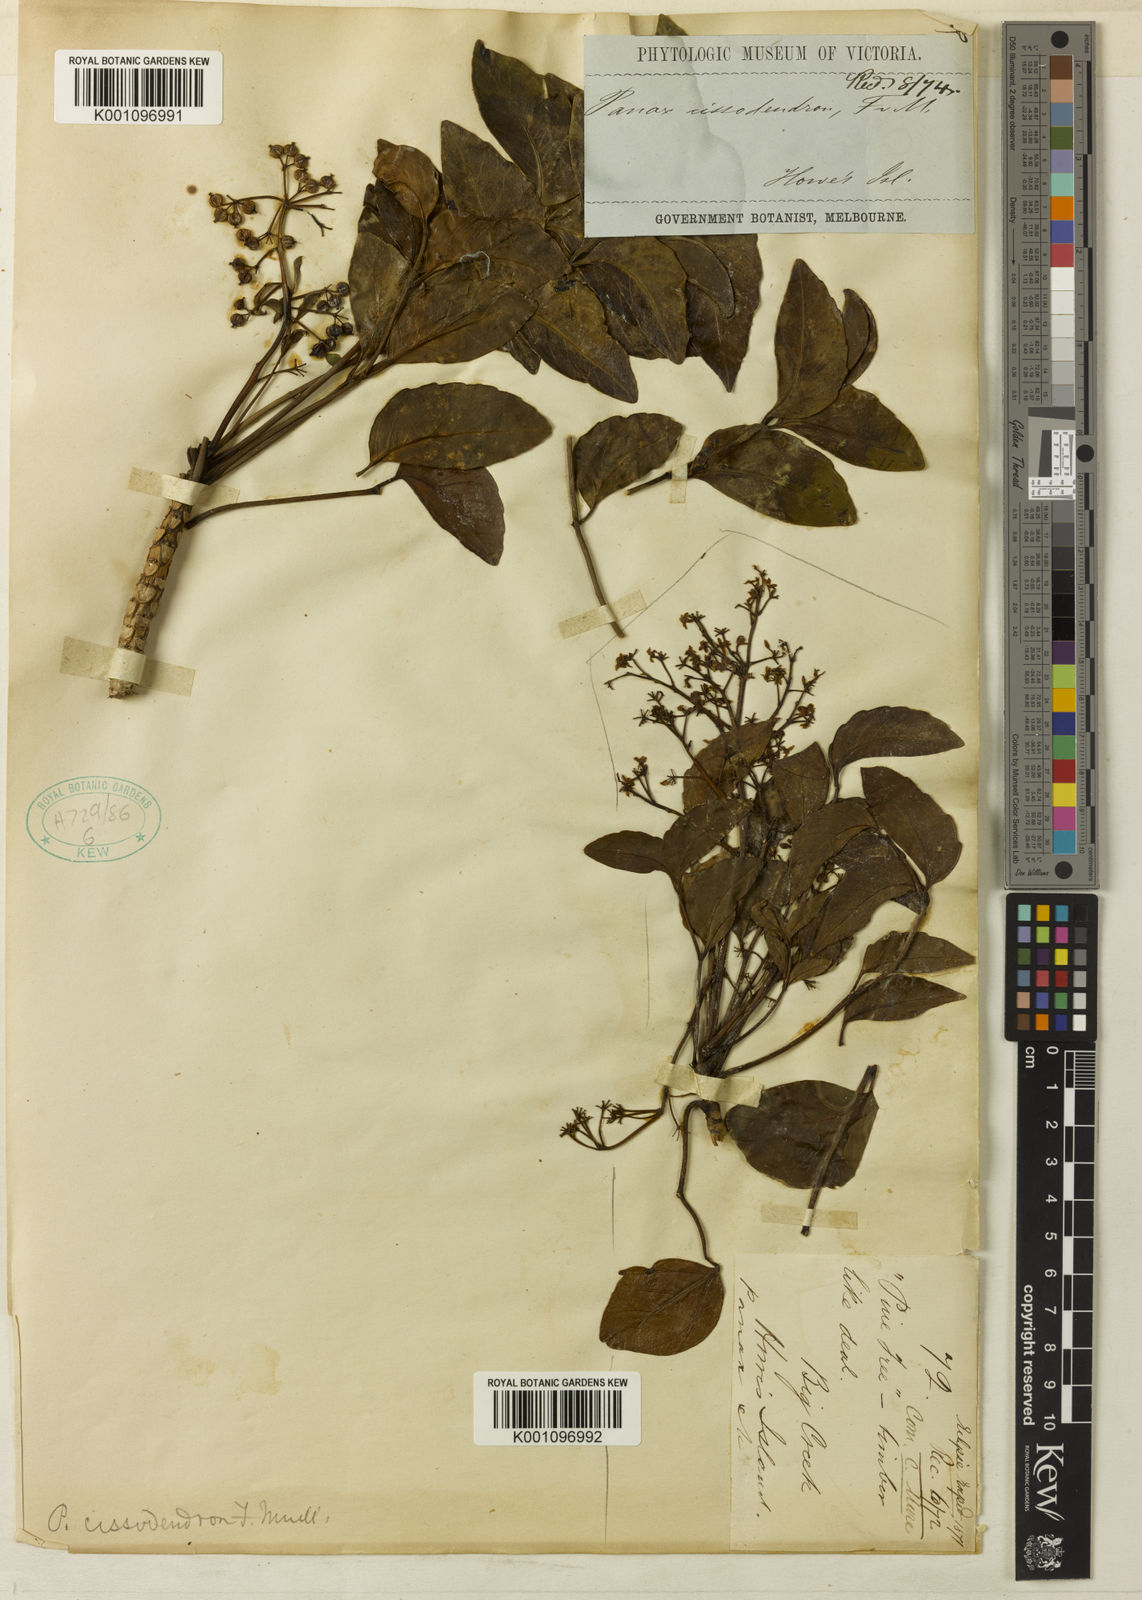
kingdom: Plantae
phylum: Tracheophyta
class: Magnoliopsida
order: Apiales
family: Araliaceae
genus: Polyscias
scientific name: Polyscias cissodendron
